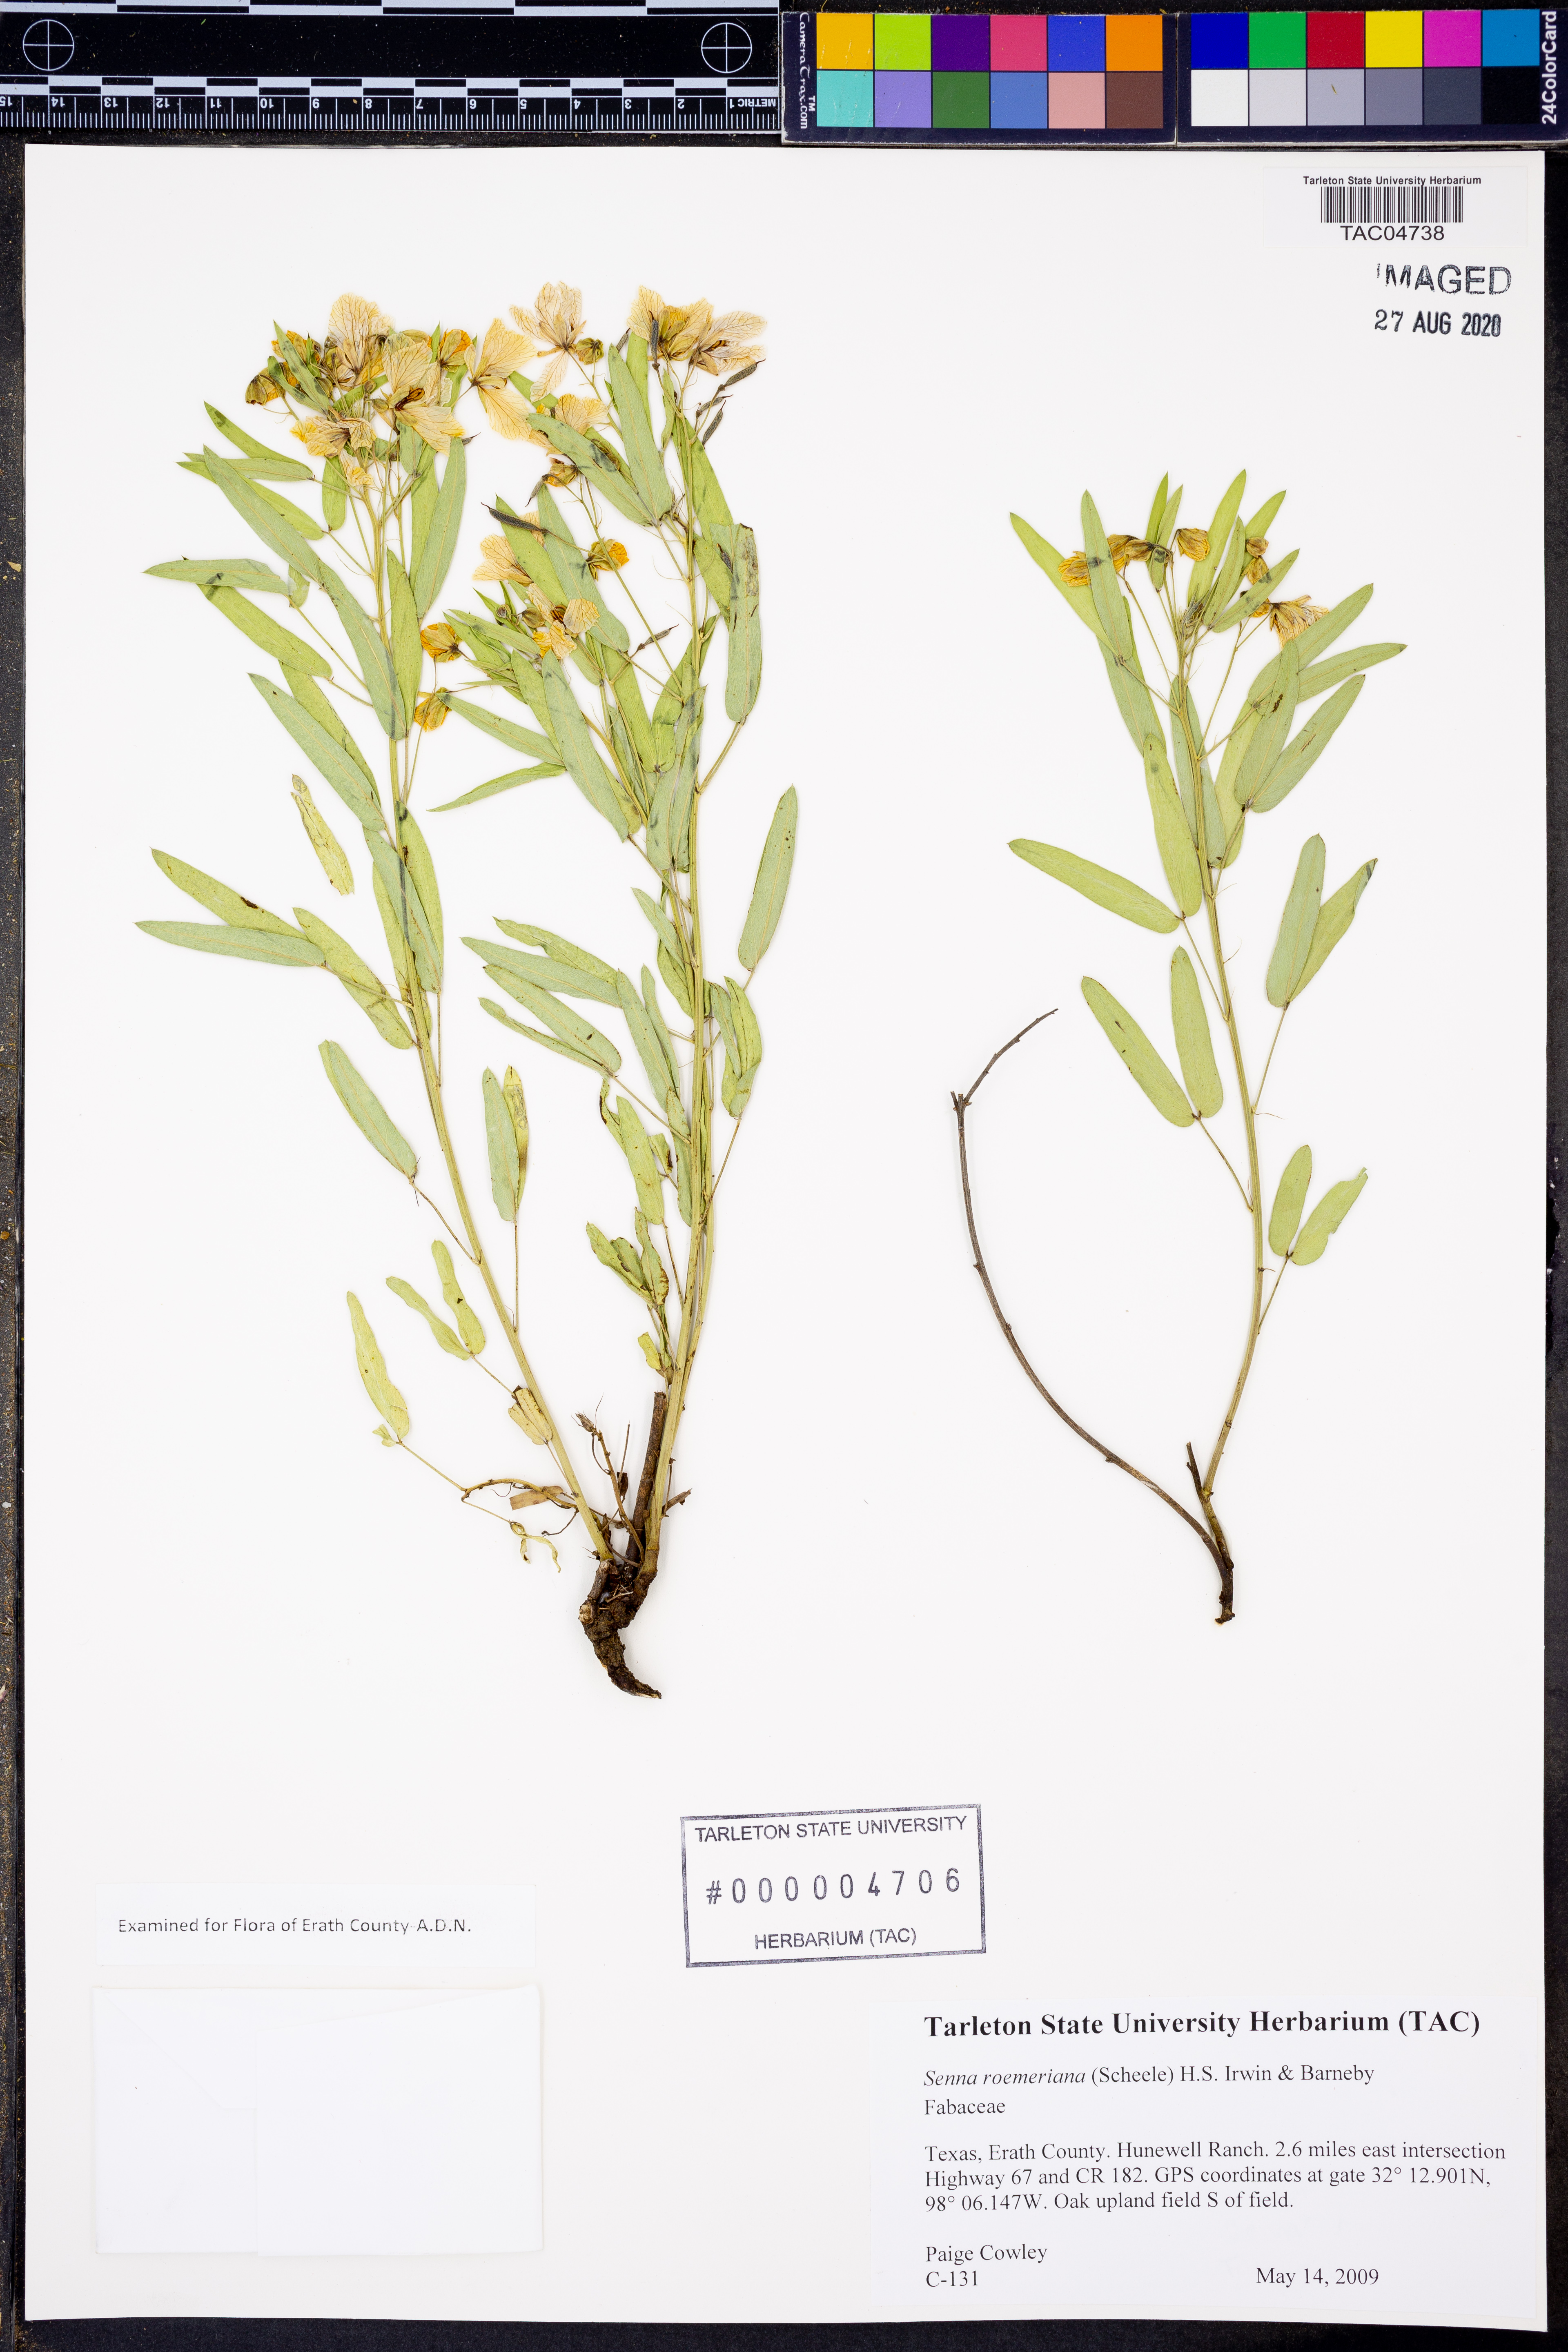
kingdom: Plantae
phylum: Tracheophyta
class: Magnoliopsida
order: Fabales
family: Fabaceae
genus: Senna
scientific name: Senna roemeriana
